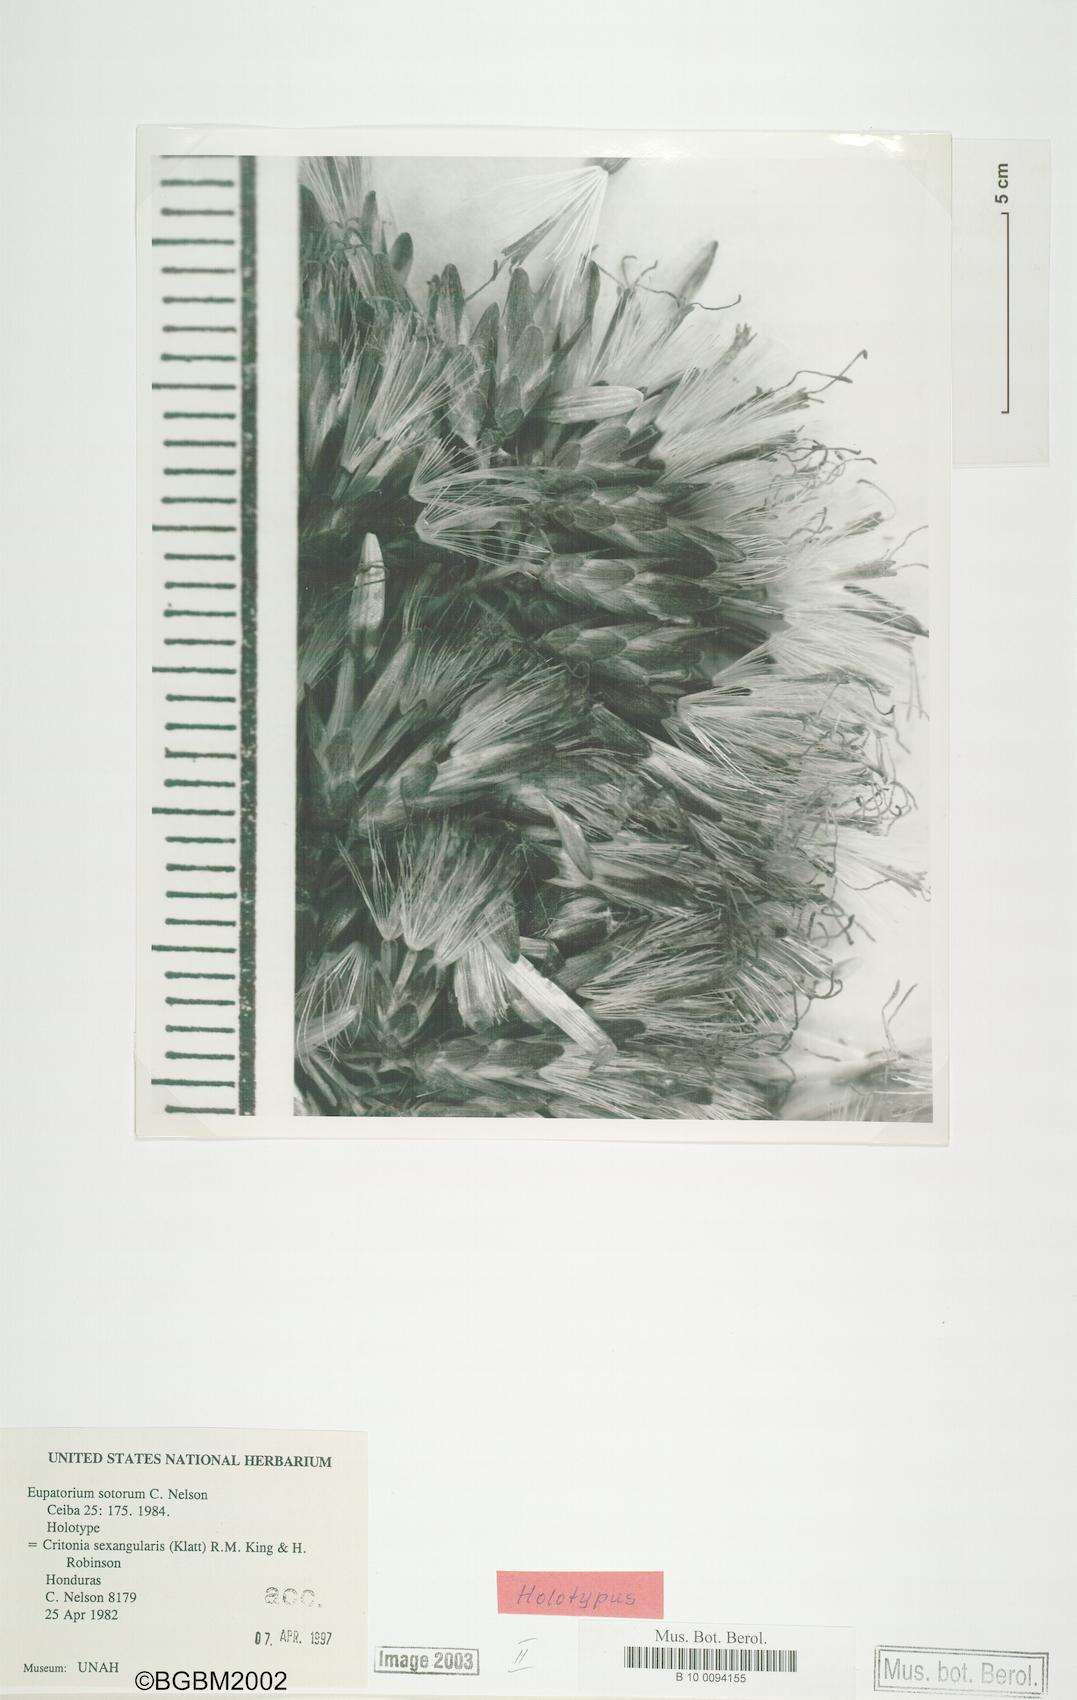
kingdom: Plantae
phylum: Tracheophyta
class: Magnoliopsida
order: Asterales
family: Asteraceae
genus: Critonia
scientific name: Critonia sexangularis
